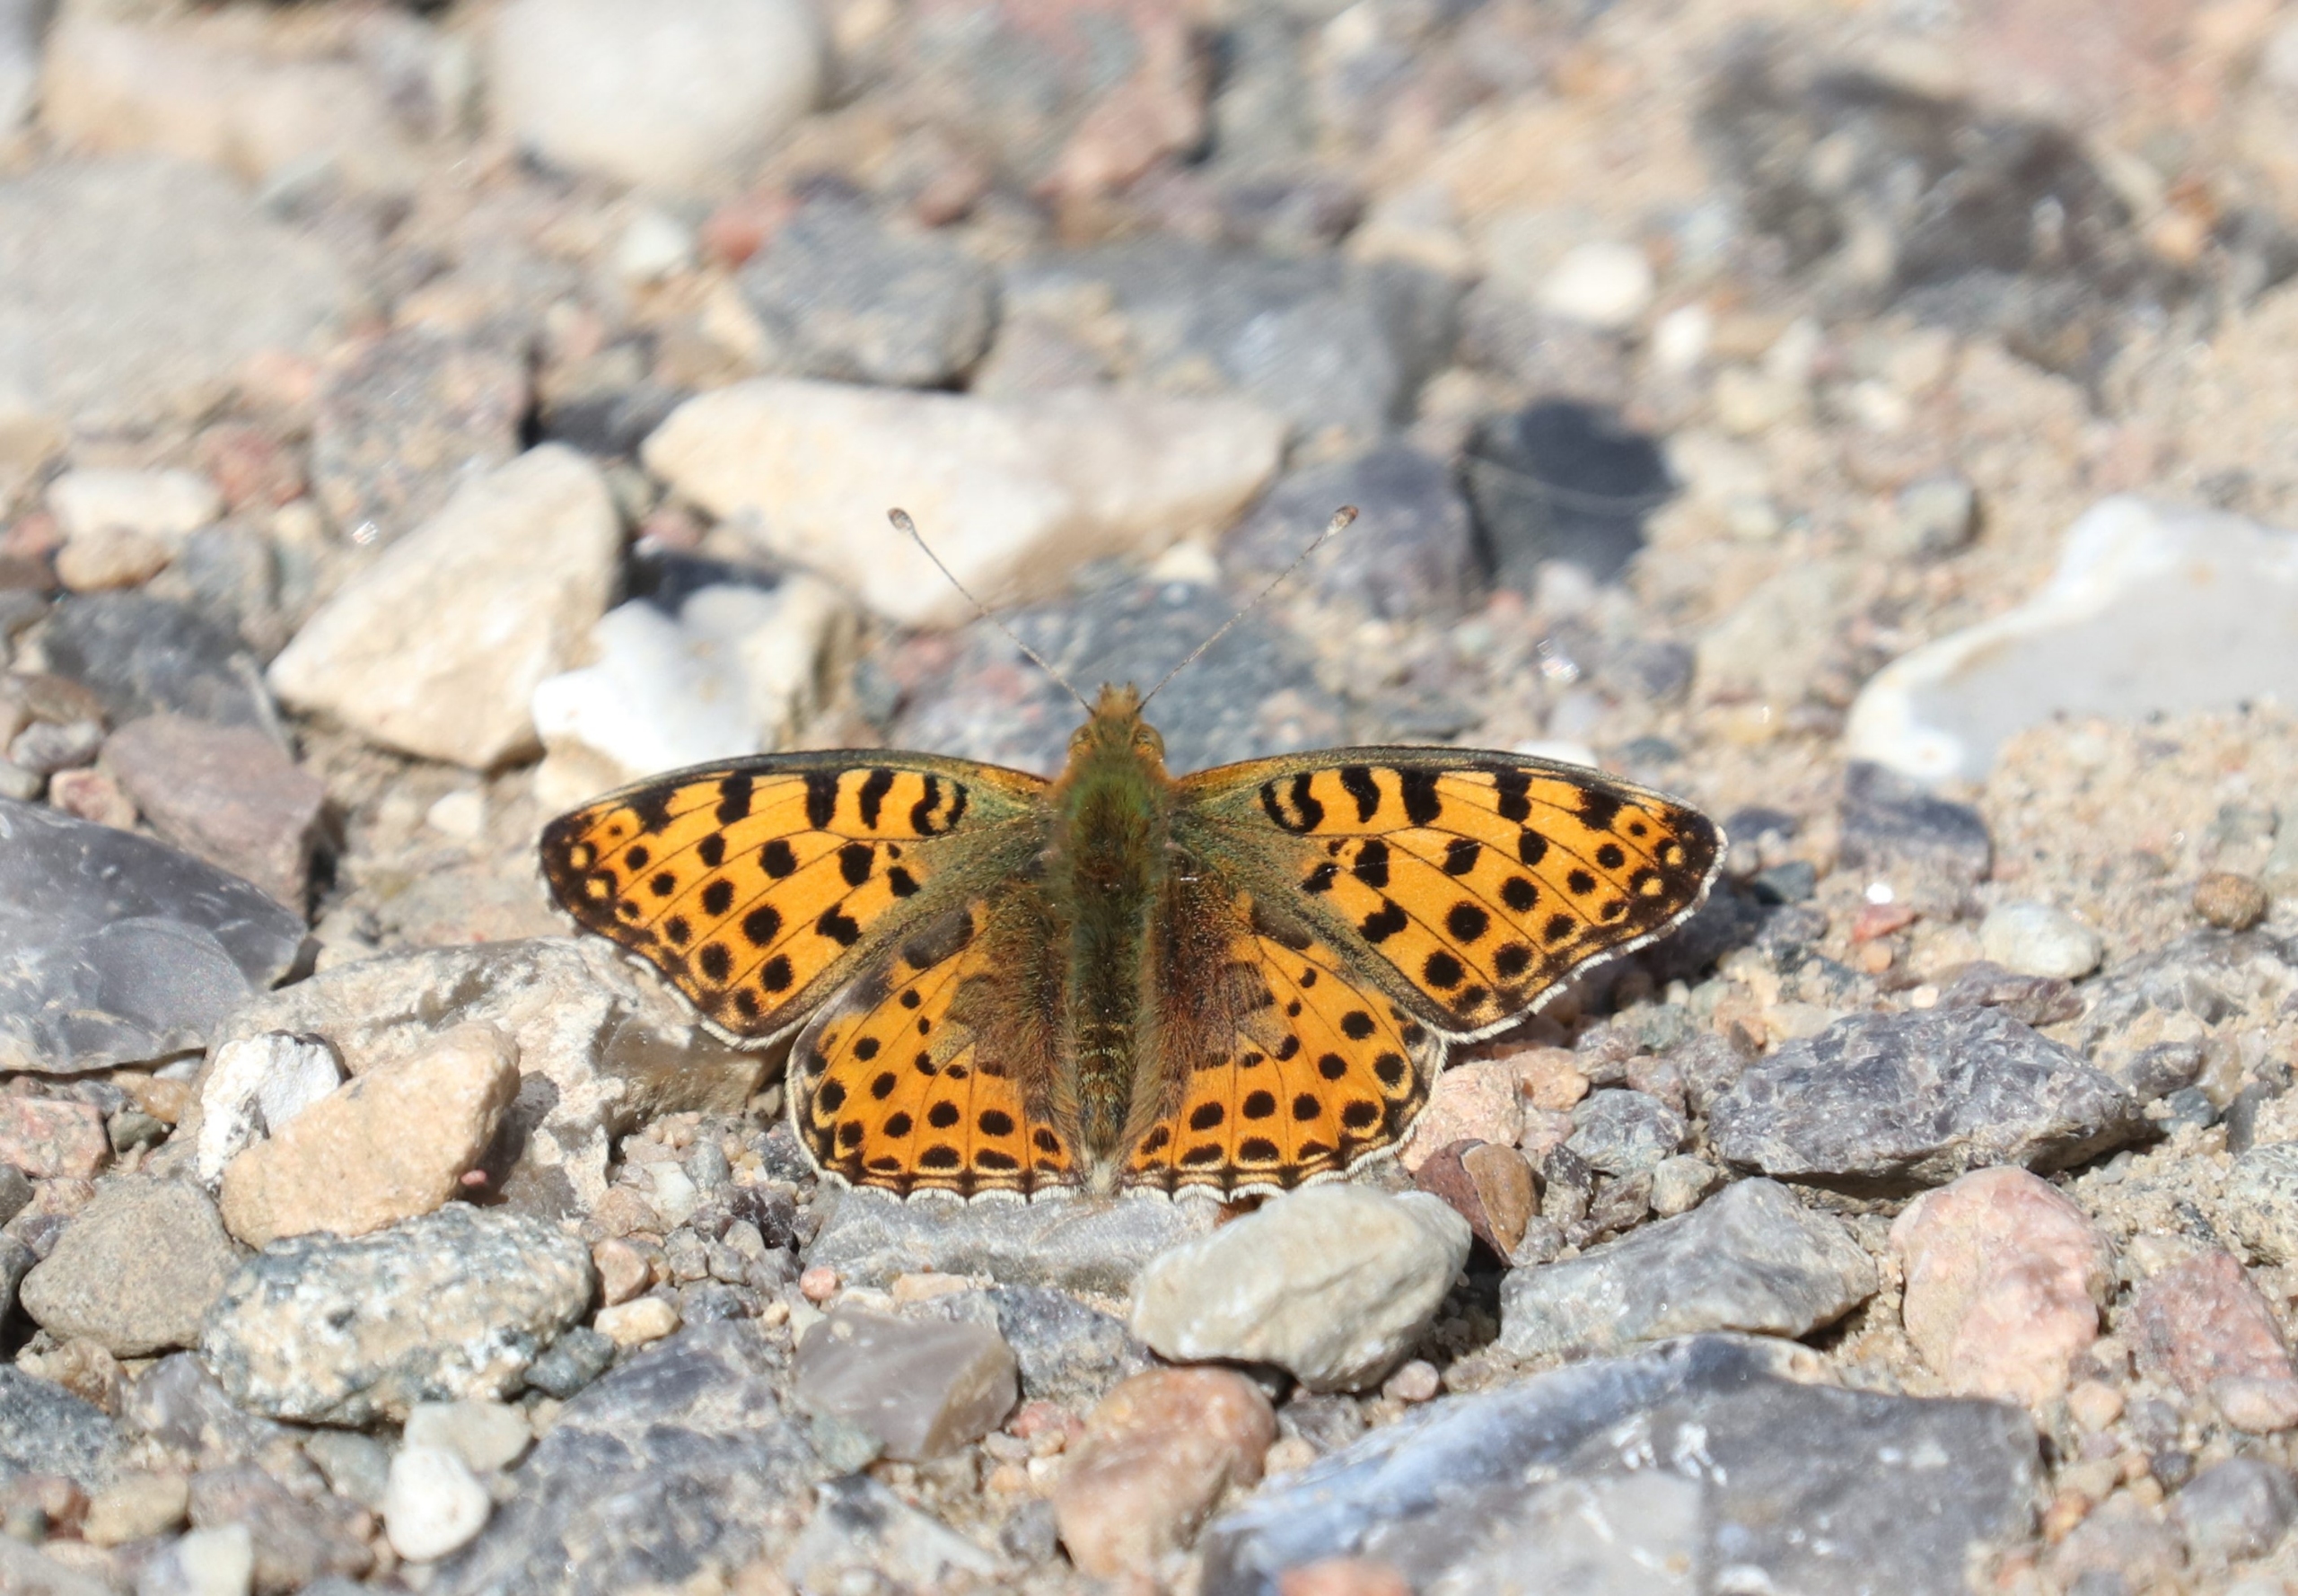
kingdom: Animalia
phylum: Arthropoda
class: Insecta
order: Lepidoptera
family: Nymphalidae
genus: Issoria
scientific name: Issoria lathonia
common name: Storplettet perlemorsommerfugl
